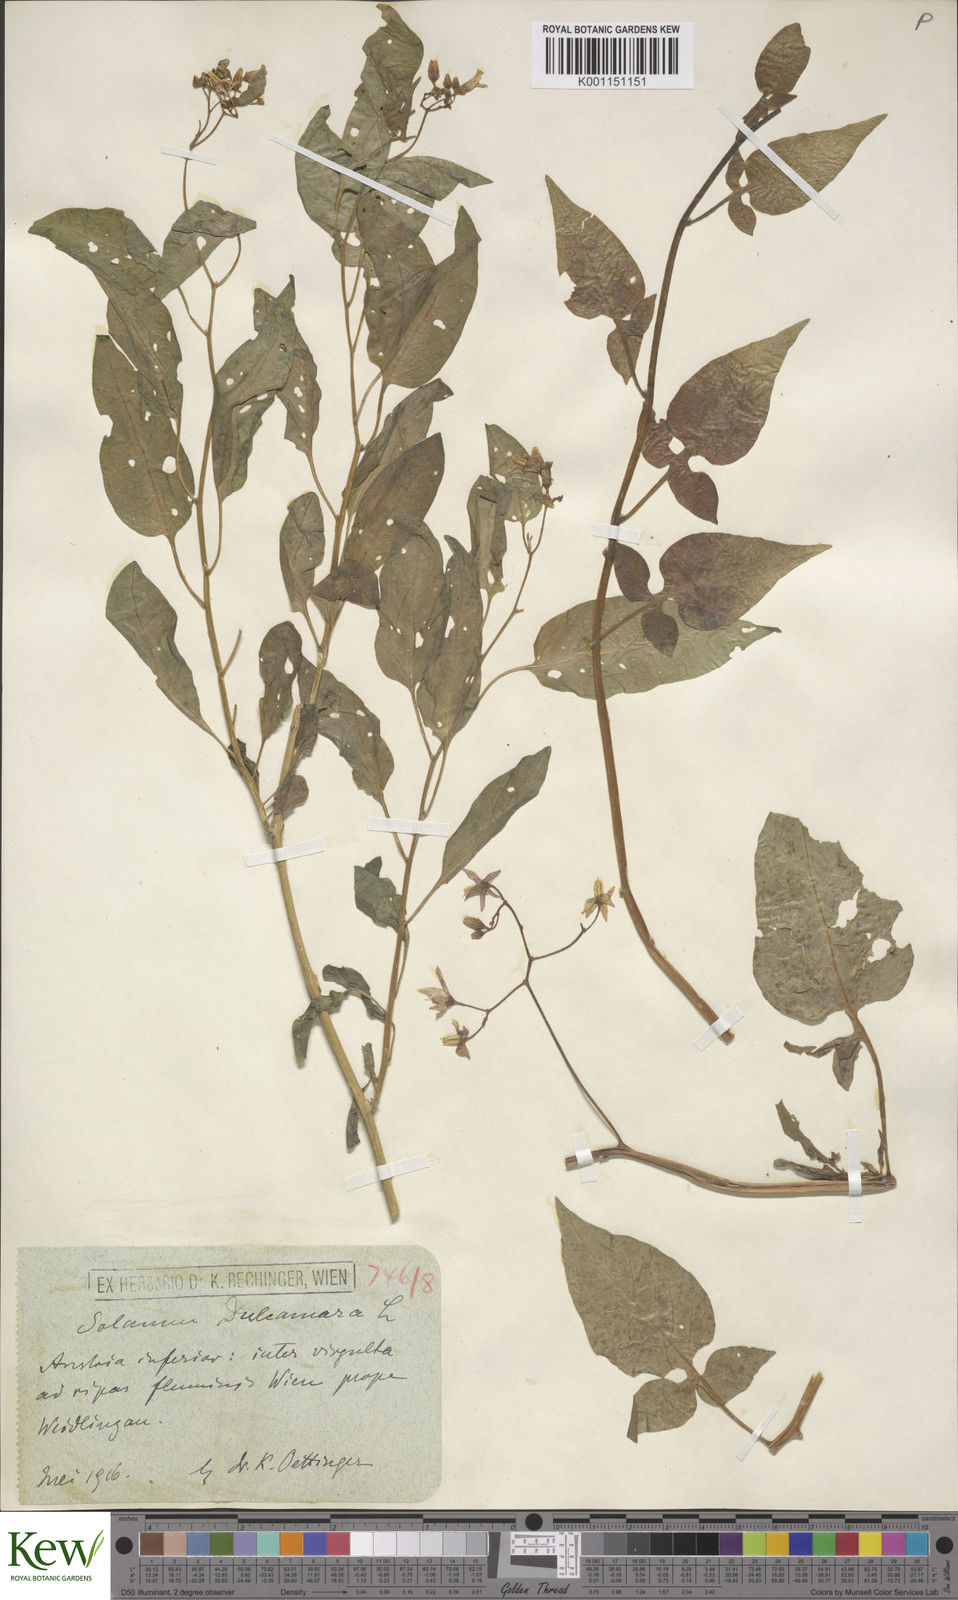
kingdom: Plantae
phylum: Tracheophyta
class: Magnoliopsida
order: Solanales
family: Solanaceae
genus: Solanum
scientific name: Solanum dulcamara
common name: Climbing nightshade
